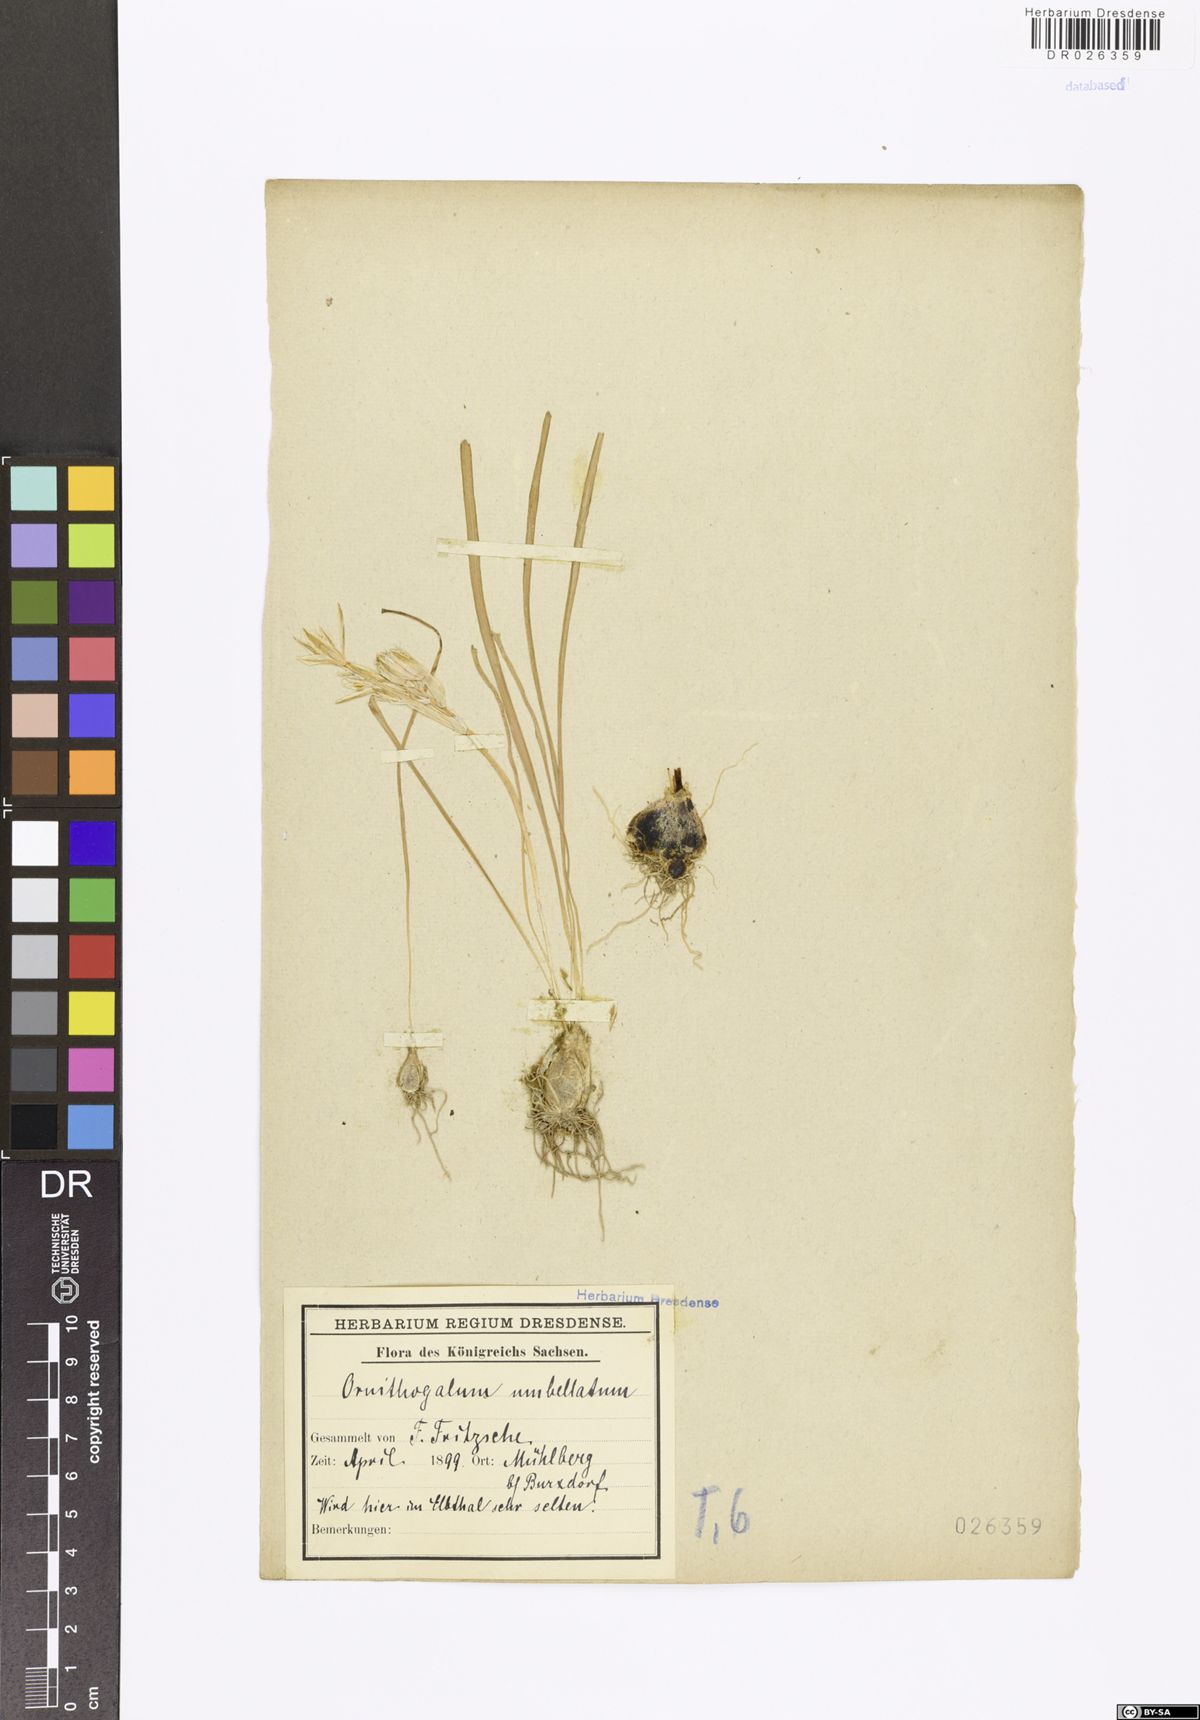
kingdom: Plantae
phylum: Tracheophyta
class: Liliopsida
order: Asparagales
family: Asparagaceae
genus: Ornithogalum
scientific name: Ornithogalum umbellatum
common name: Garden star-of-bethlehem
